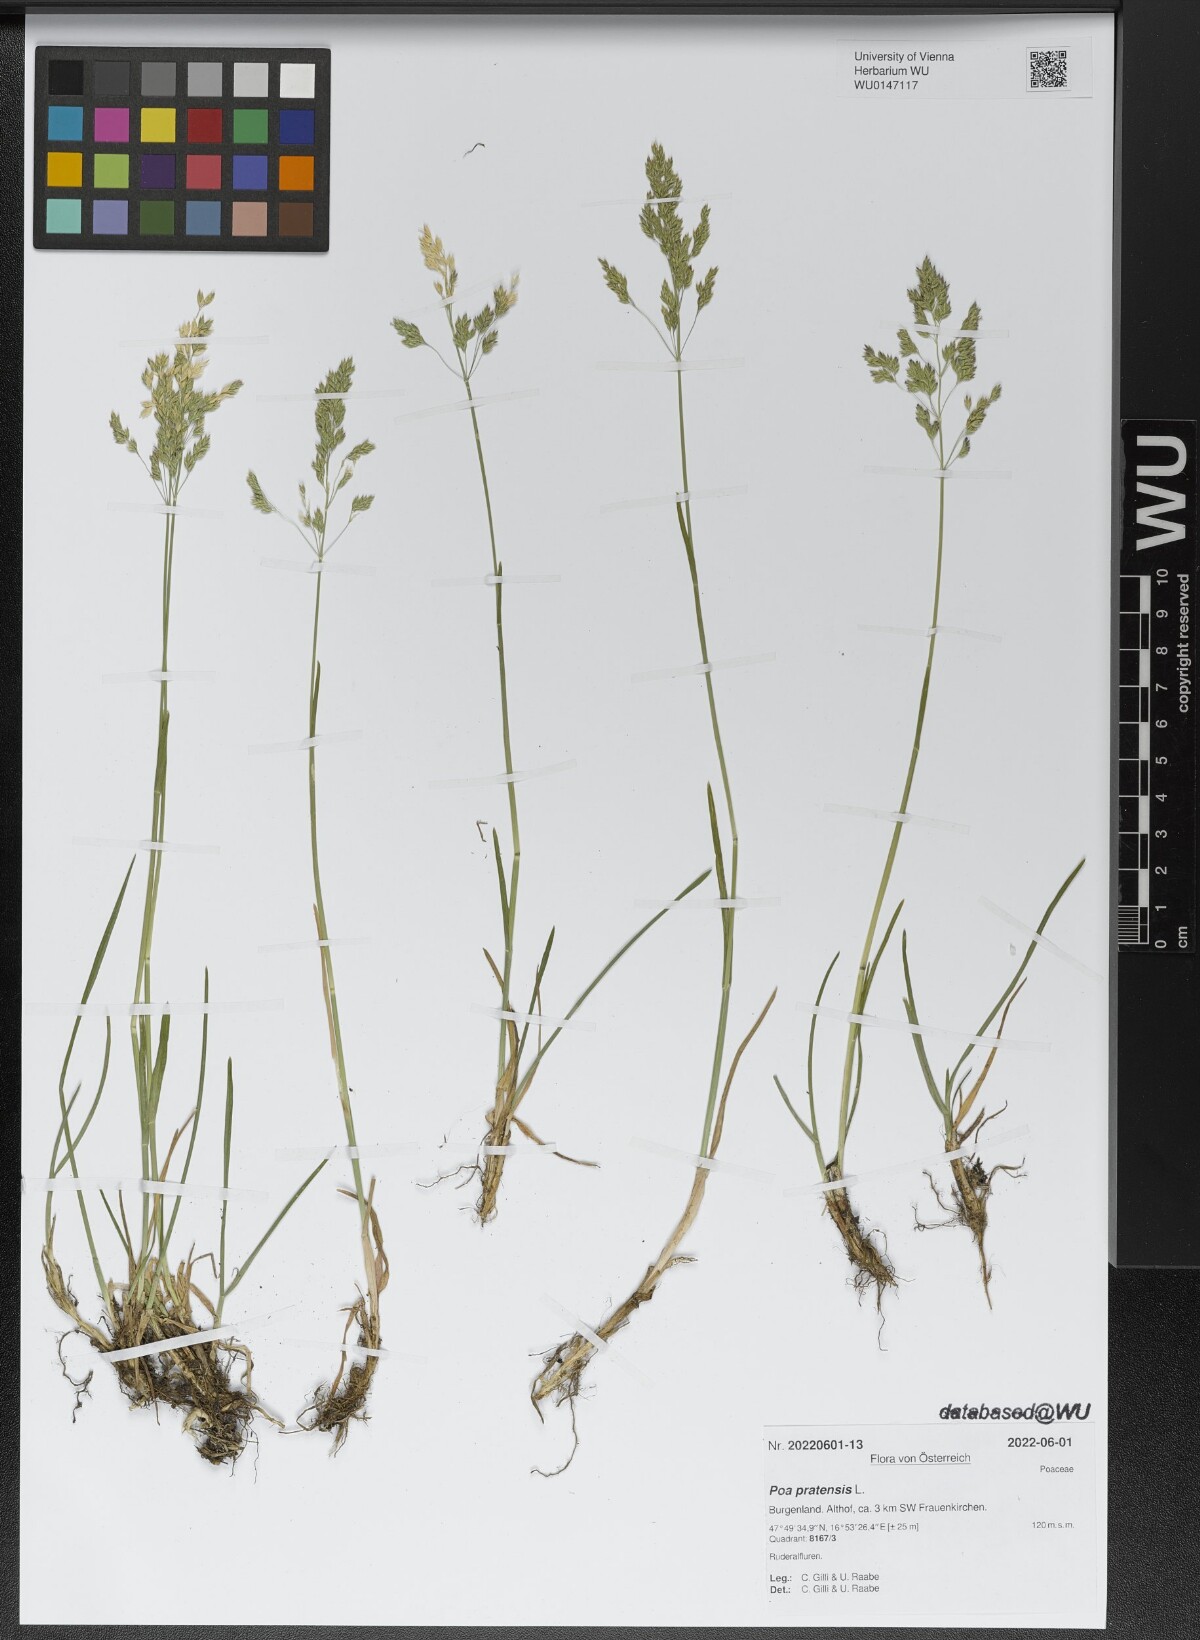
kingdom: Plantae
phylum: Tracheophyta
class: Liliopsida
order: Poales
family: Poaceae
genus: Poa
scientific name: Poa pratensis
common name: Kentucky bluegrass
